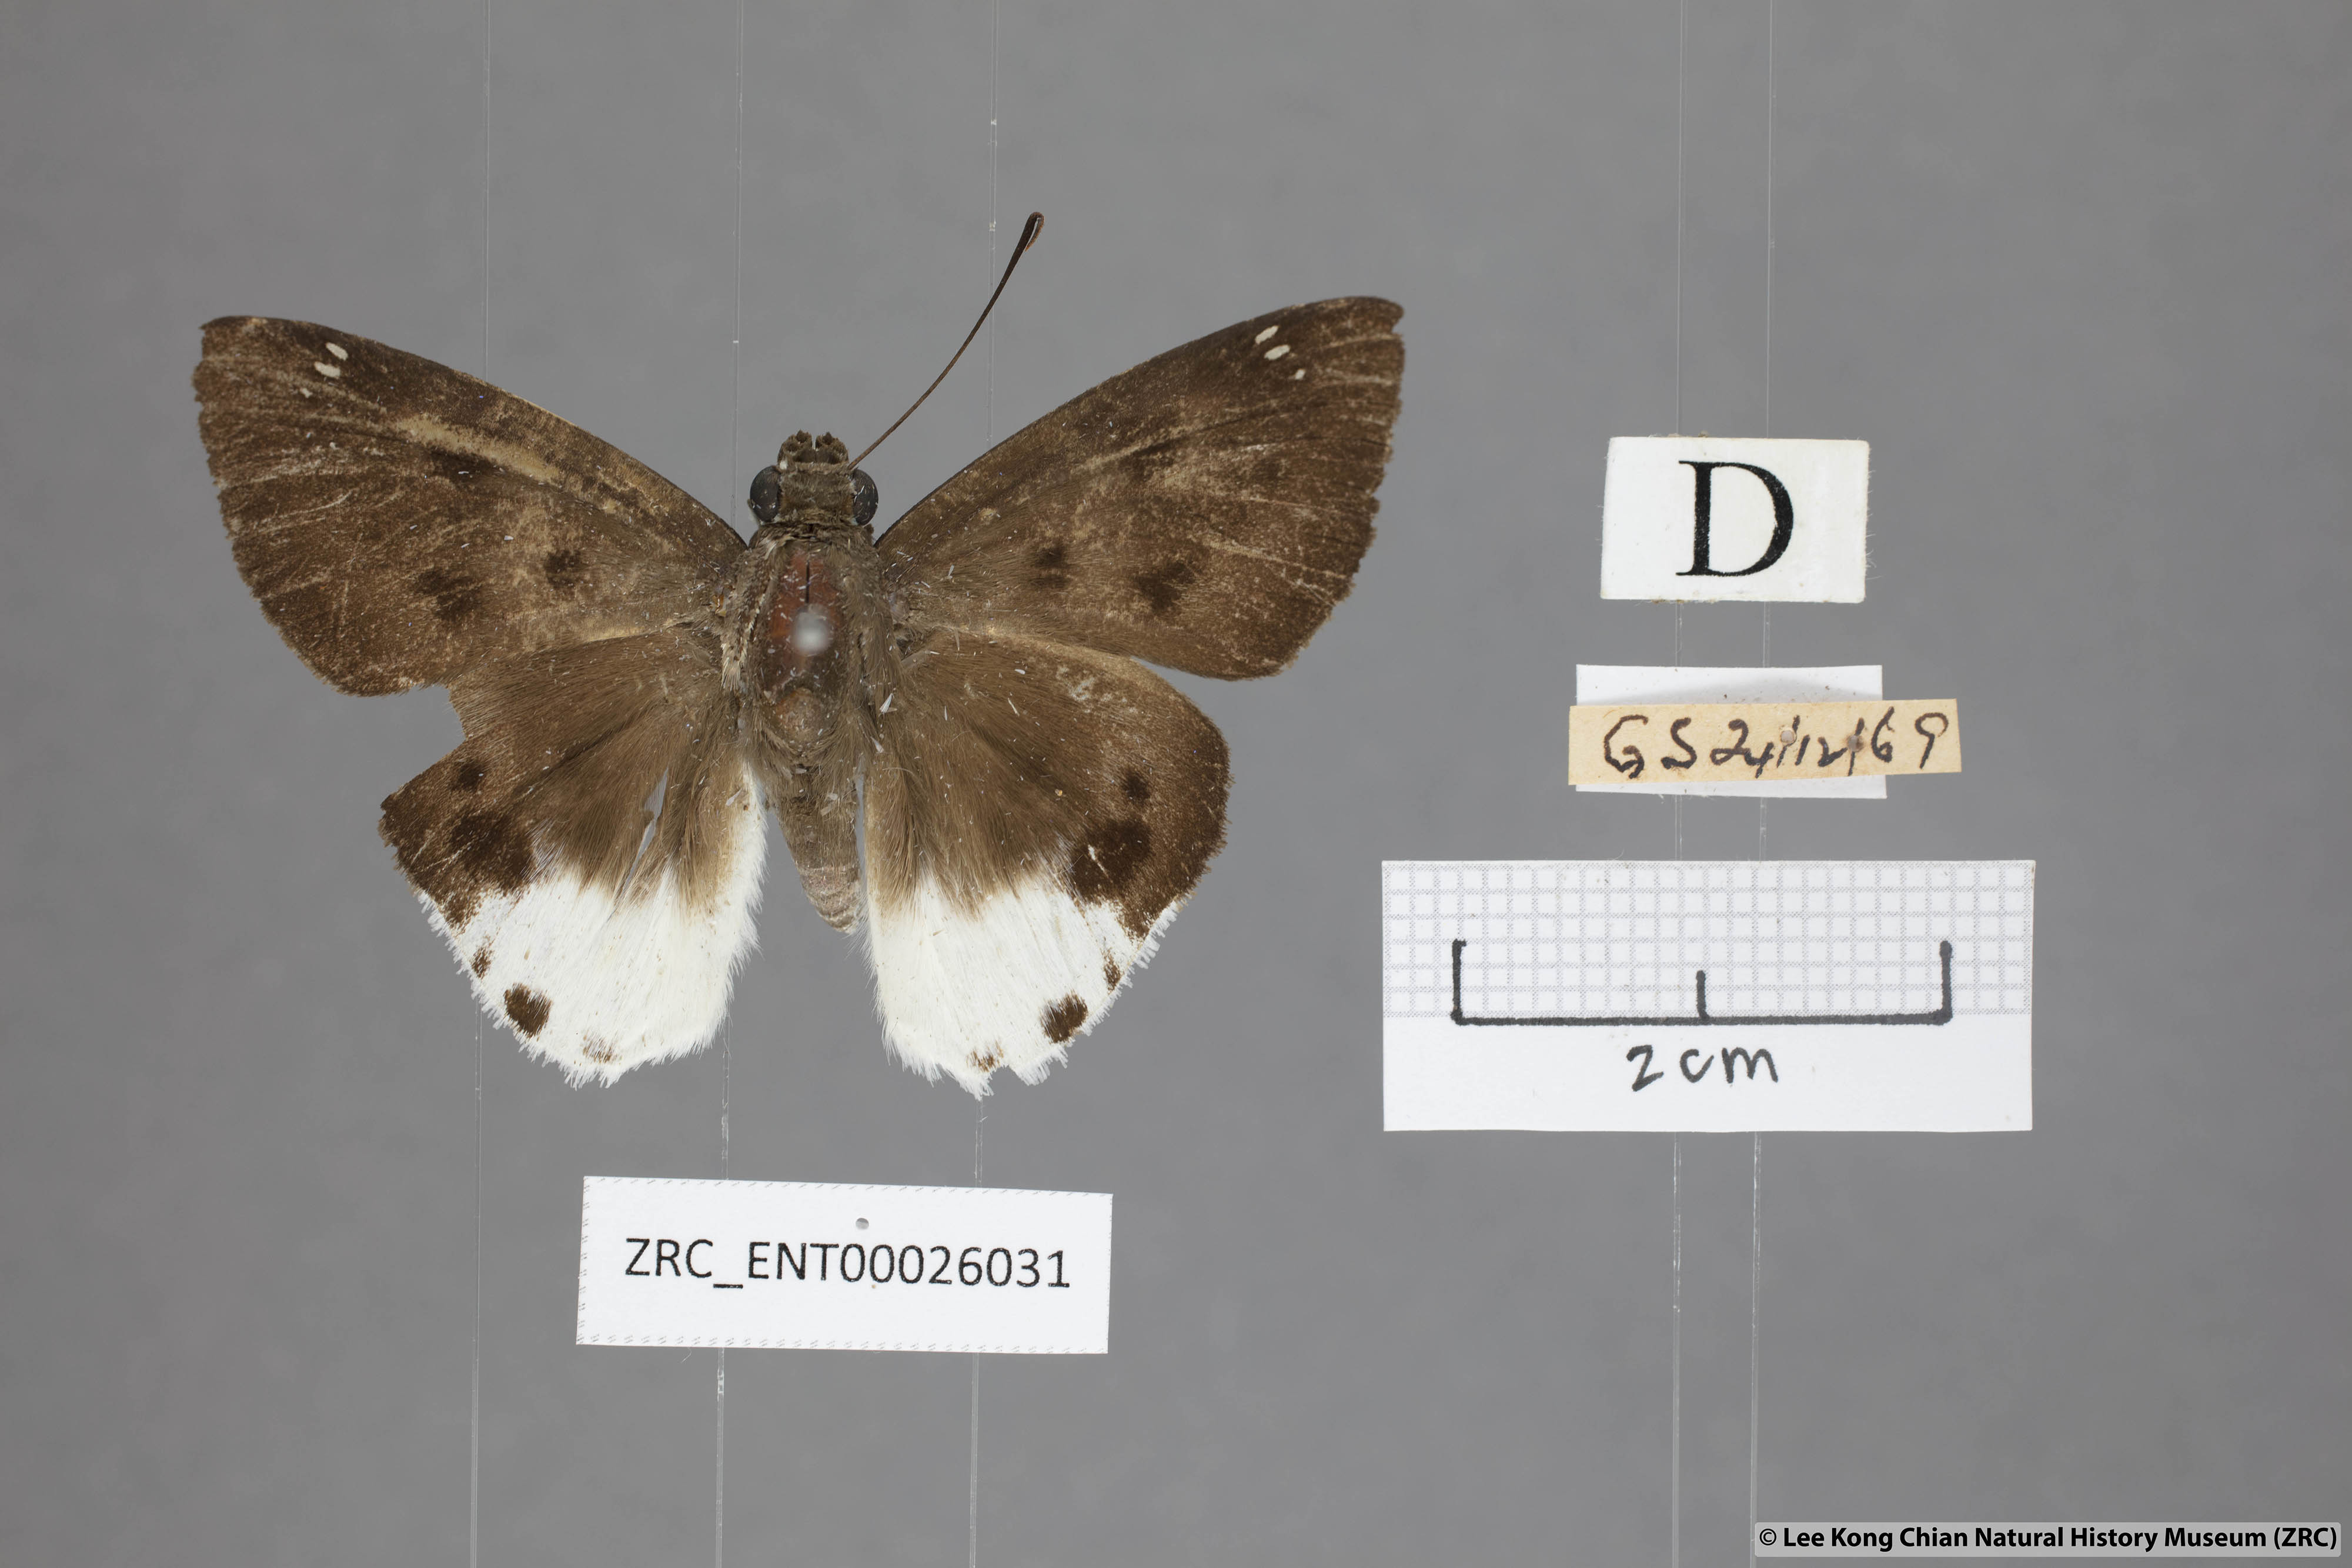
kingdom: Animalia
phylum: Arthropoda
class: Insecta
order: Lepidoptera
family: Hesperiidae
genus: Tagiades
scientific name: Tagiades parra
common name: Straight snow flat
